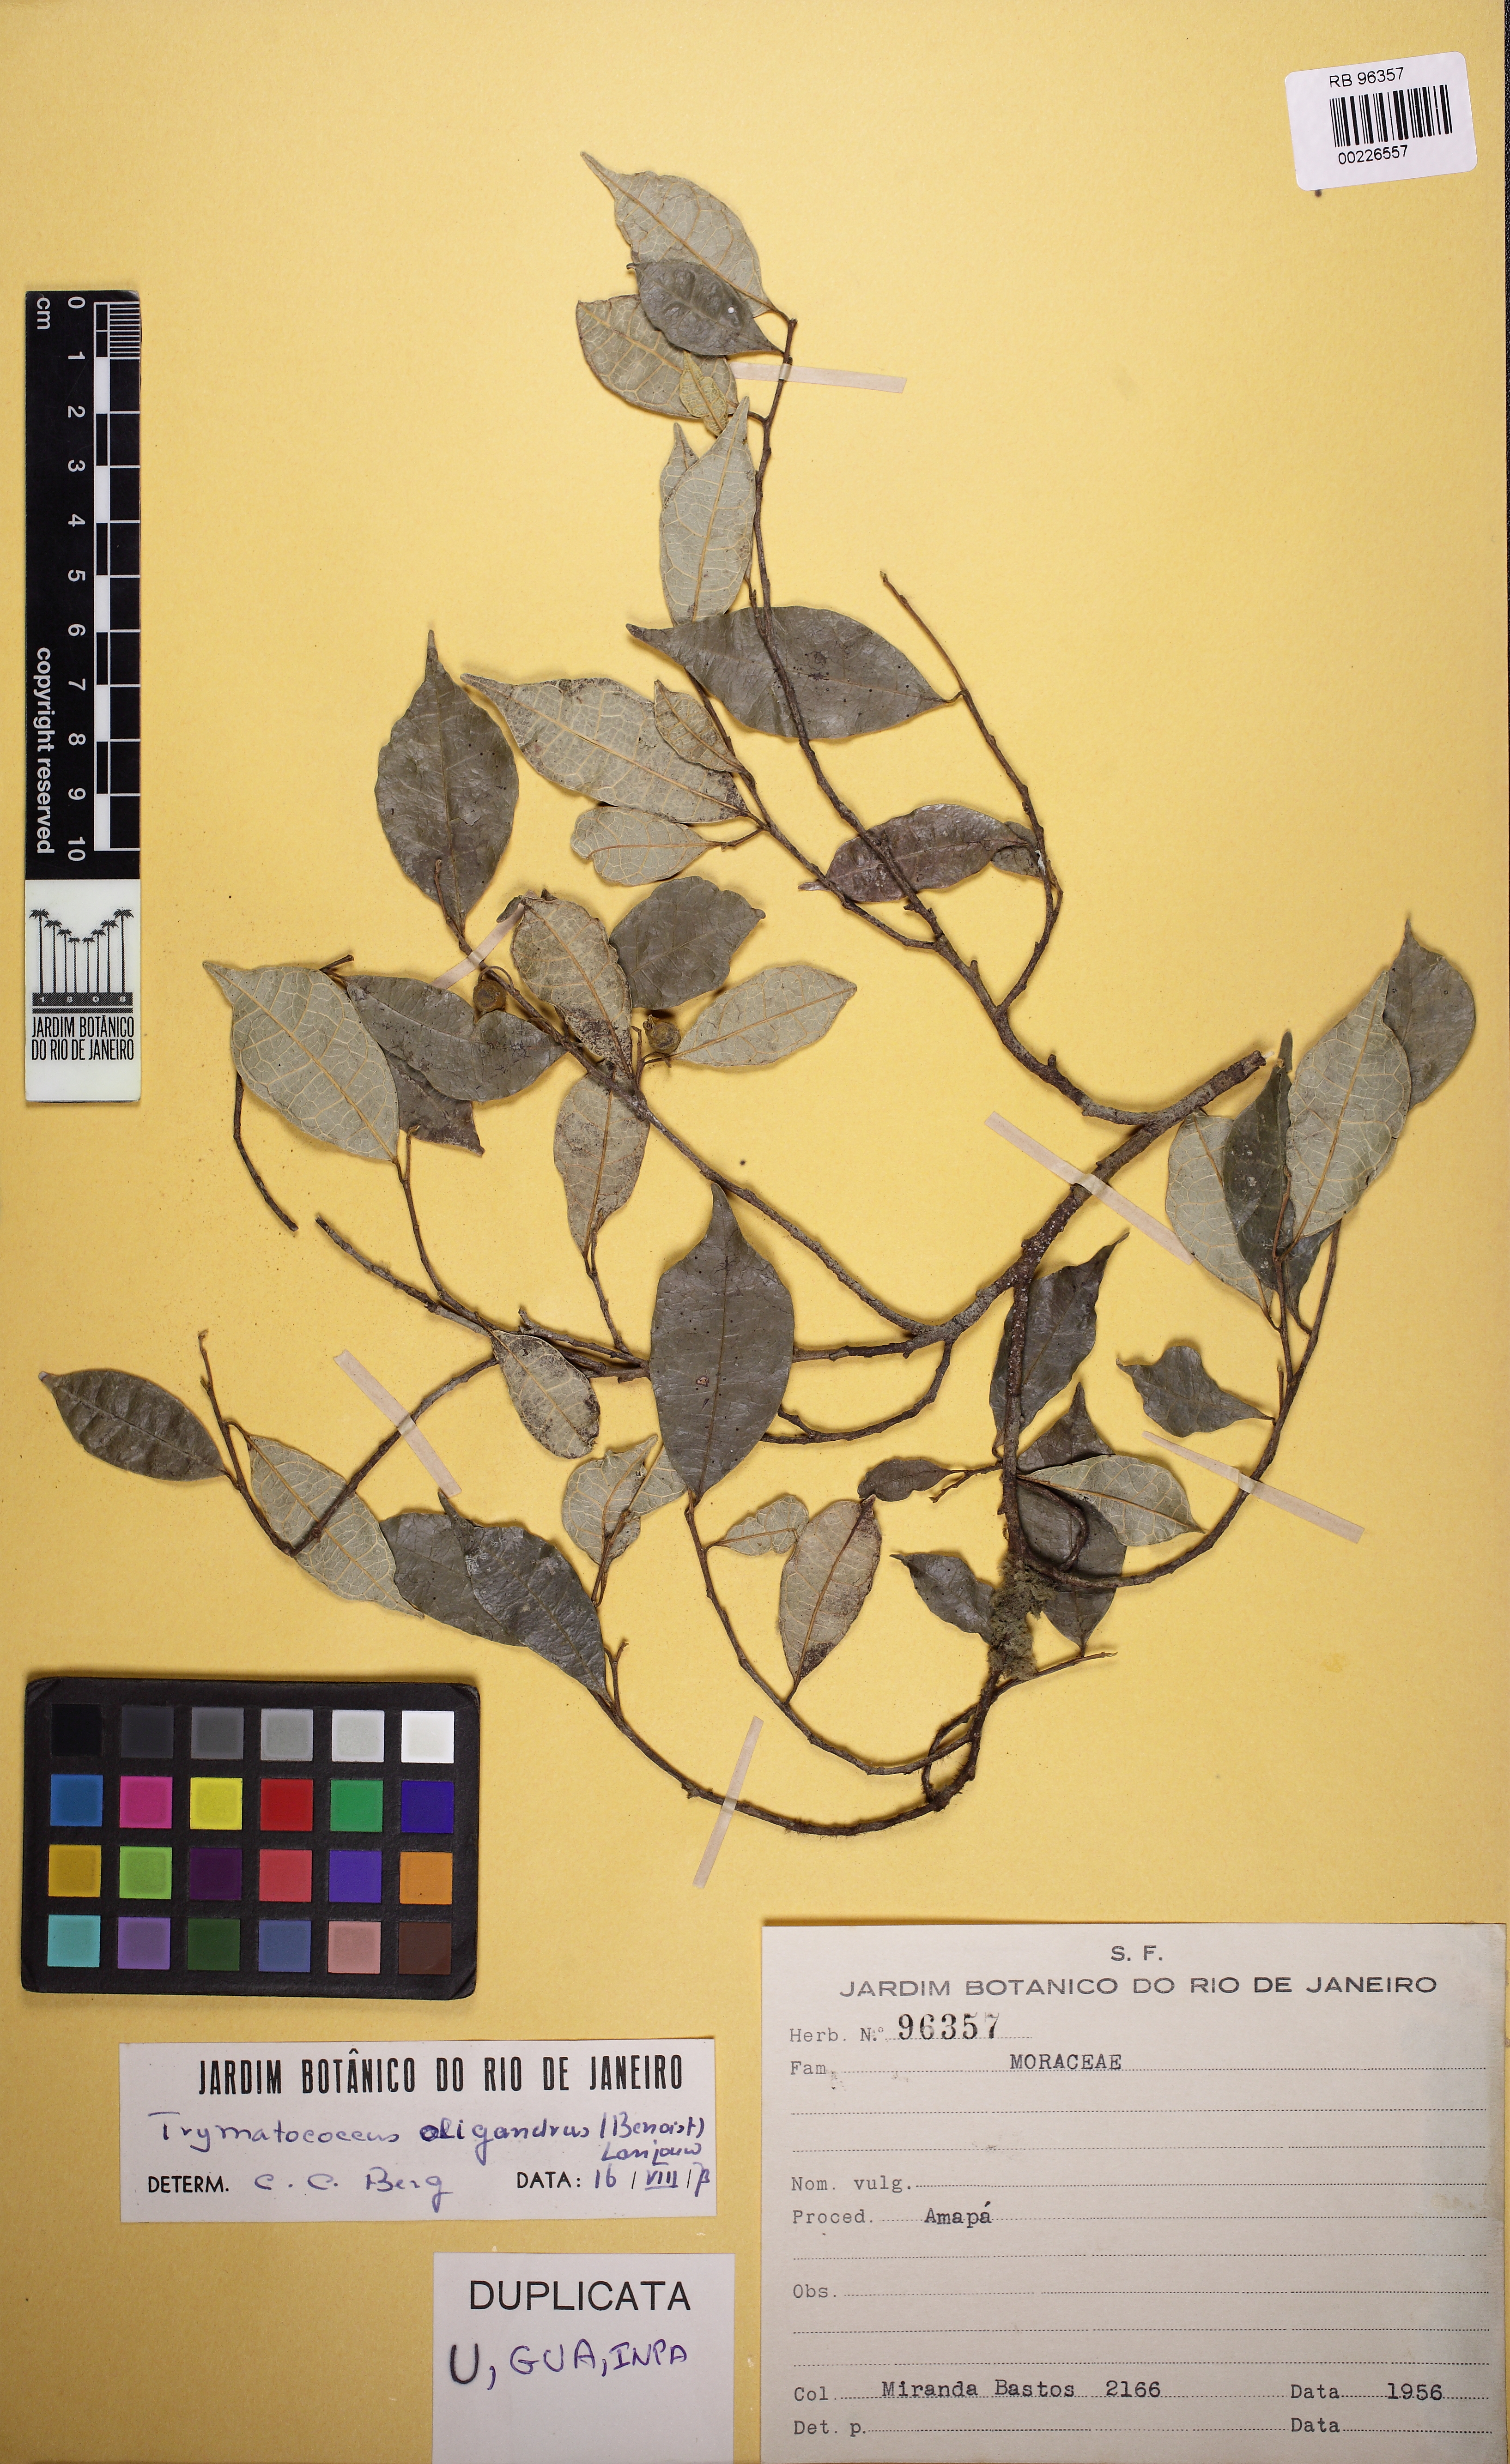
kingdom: Plantae
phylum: Tracheophyta
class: Magnoliopsida
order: Rosales
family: Moraceae
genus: Brosimum
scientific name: Brosimum oligandrum
